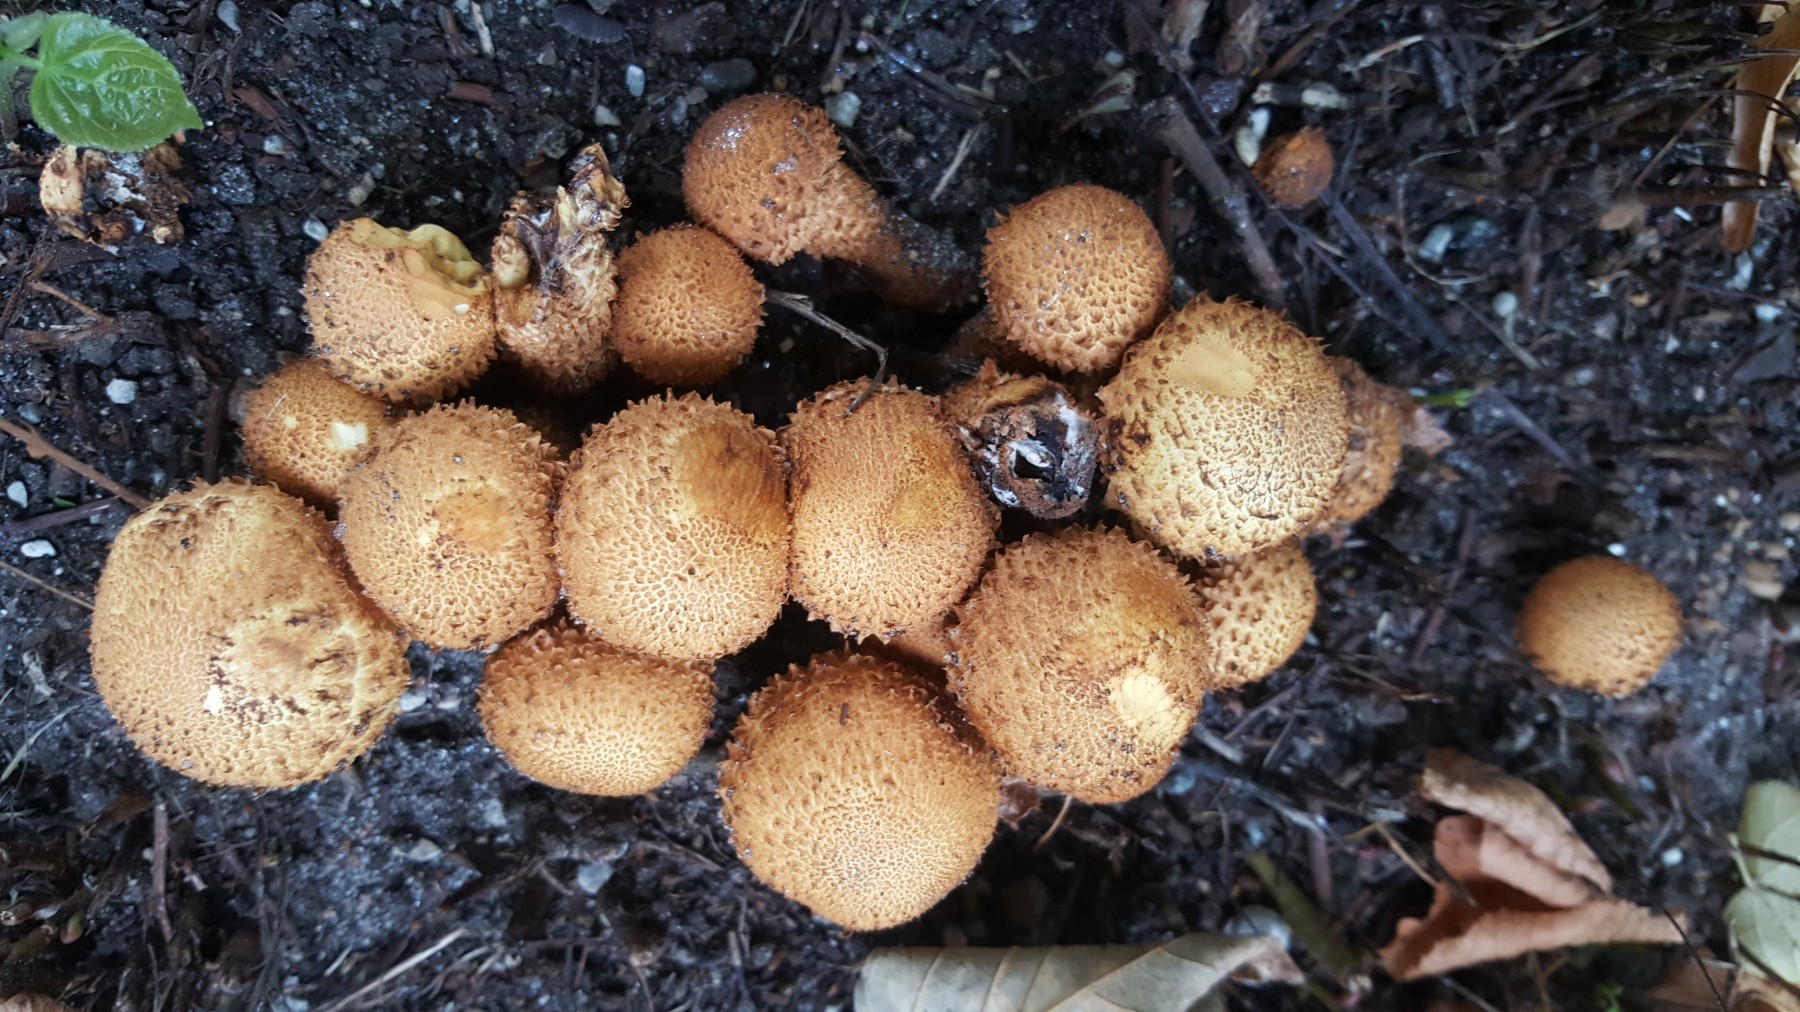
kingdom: Fungi
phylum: Basidiomycota
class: Agaricomycetes
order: Agaricales
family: Strophariaceae
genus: Pholiota
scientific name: Pholiota squarrosa
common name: krumskællet skælhat
